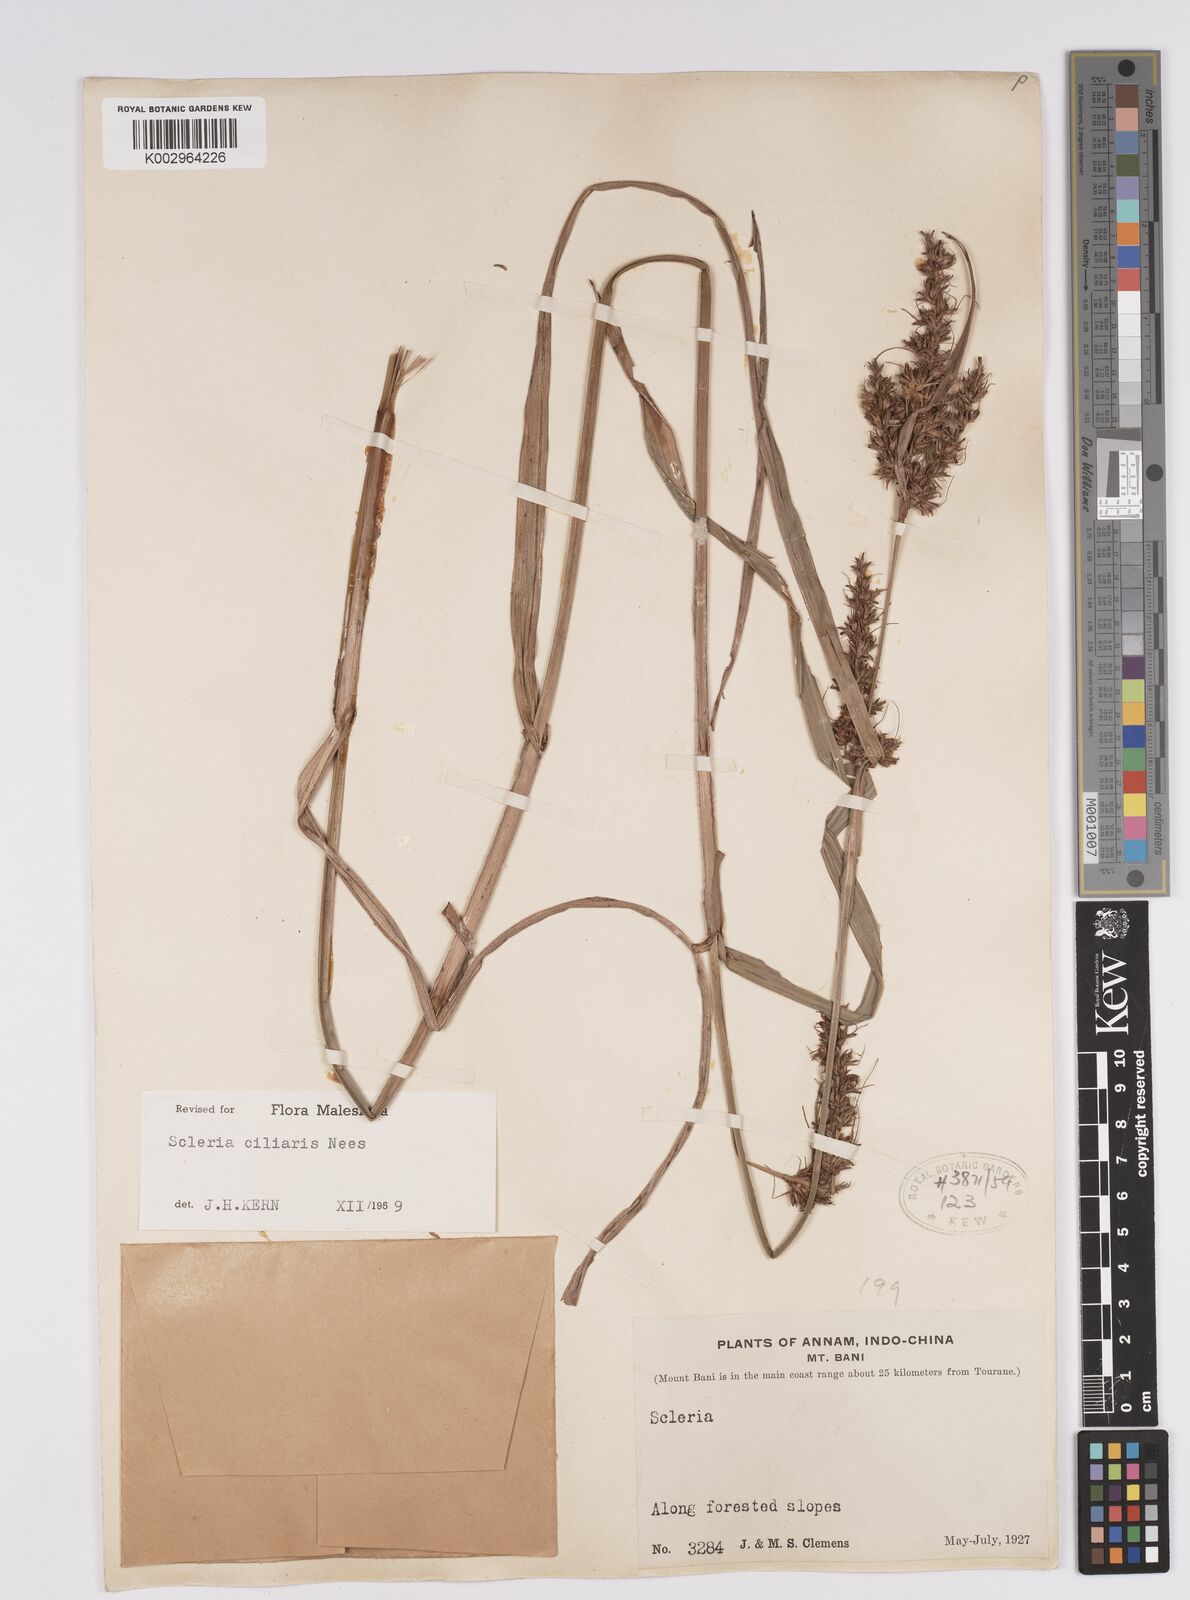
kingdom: Plantae
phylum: Tracheophyta
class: Liliopsida
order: Poales
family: Cyperaceae
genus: Scleria
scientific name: Scleria ciliaris
